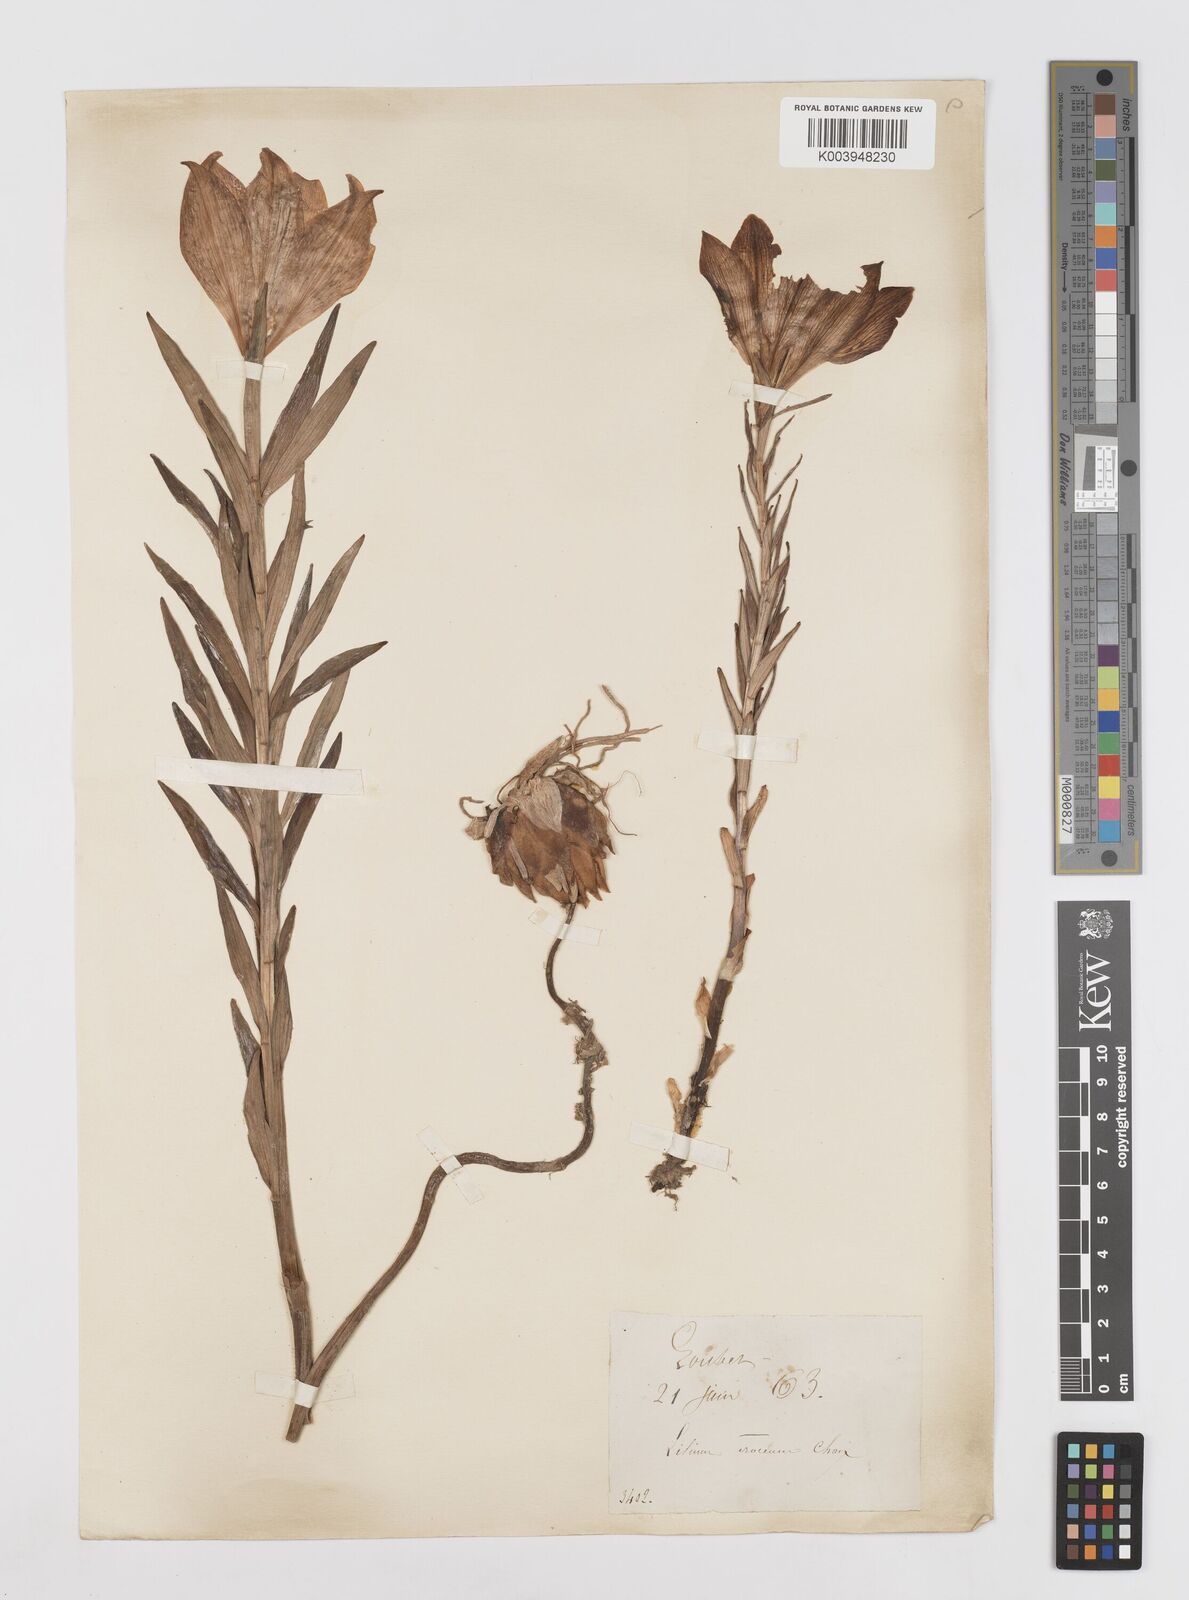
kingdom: Plantae
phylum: Tracheophyta
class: Liliopsida
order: Liliales
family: Liliaceae
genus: Lilium
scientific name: Lilium bulbiferum
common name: Orange lily
